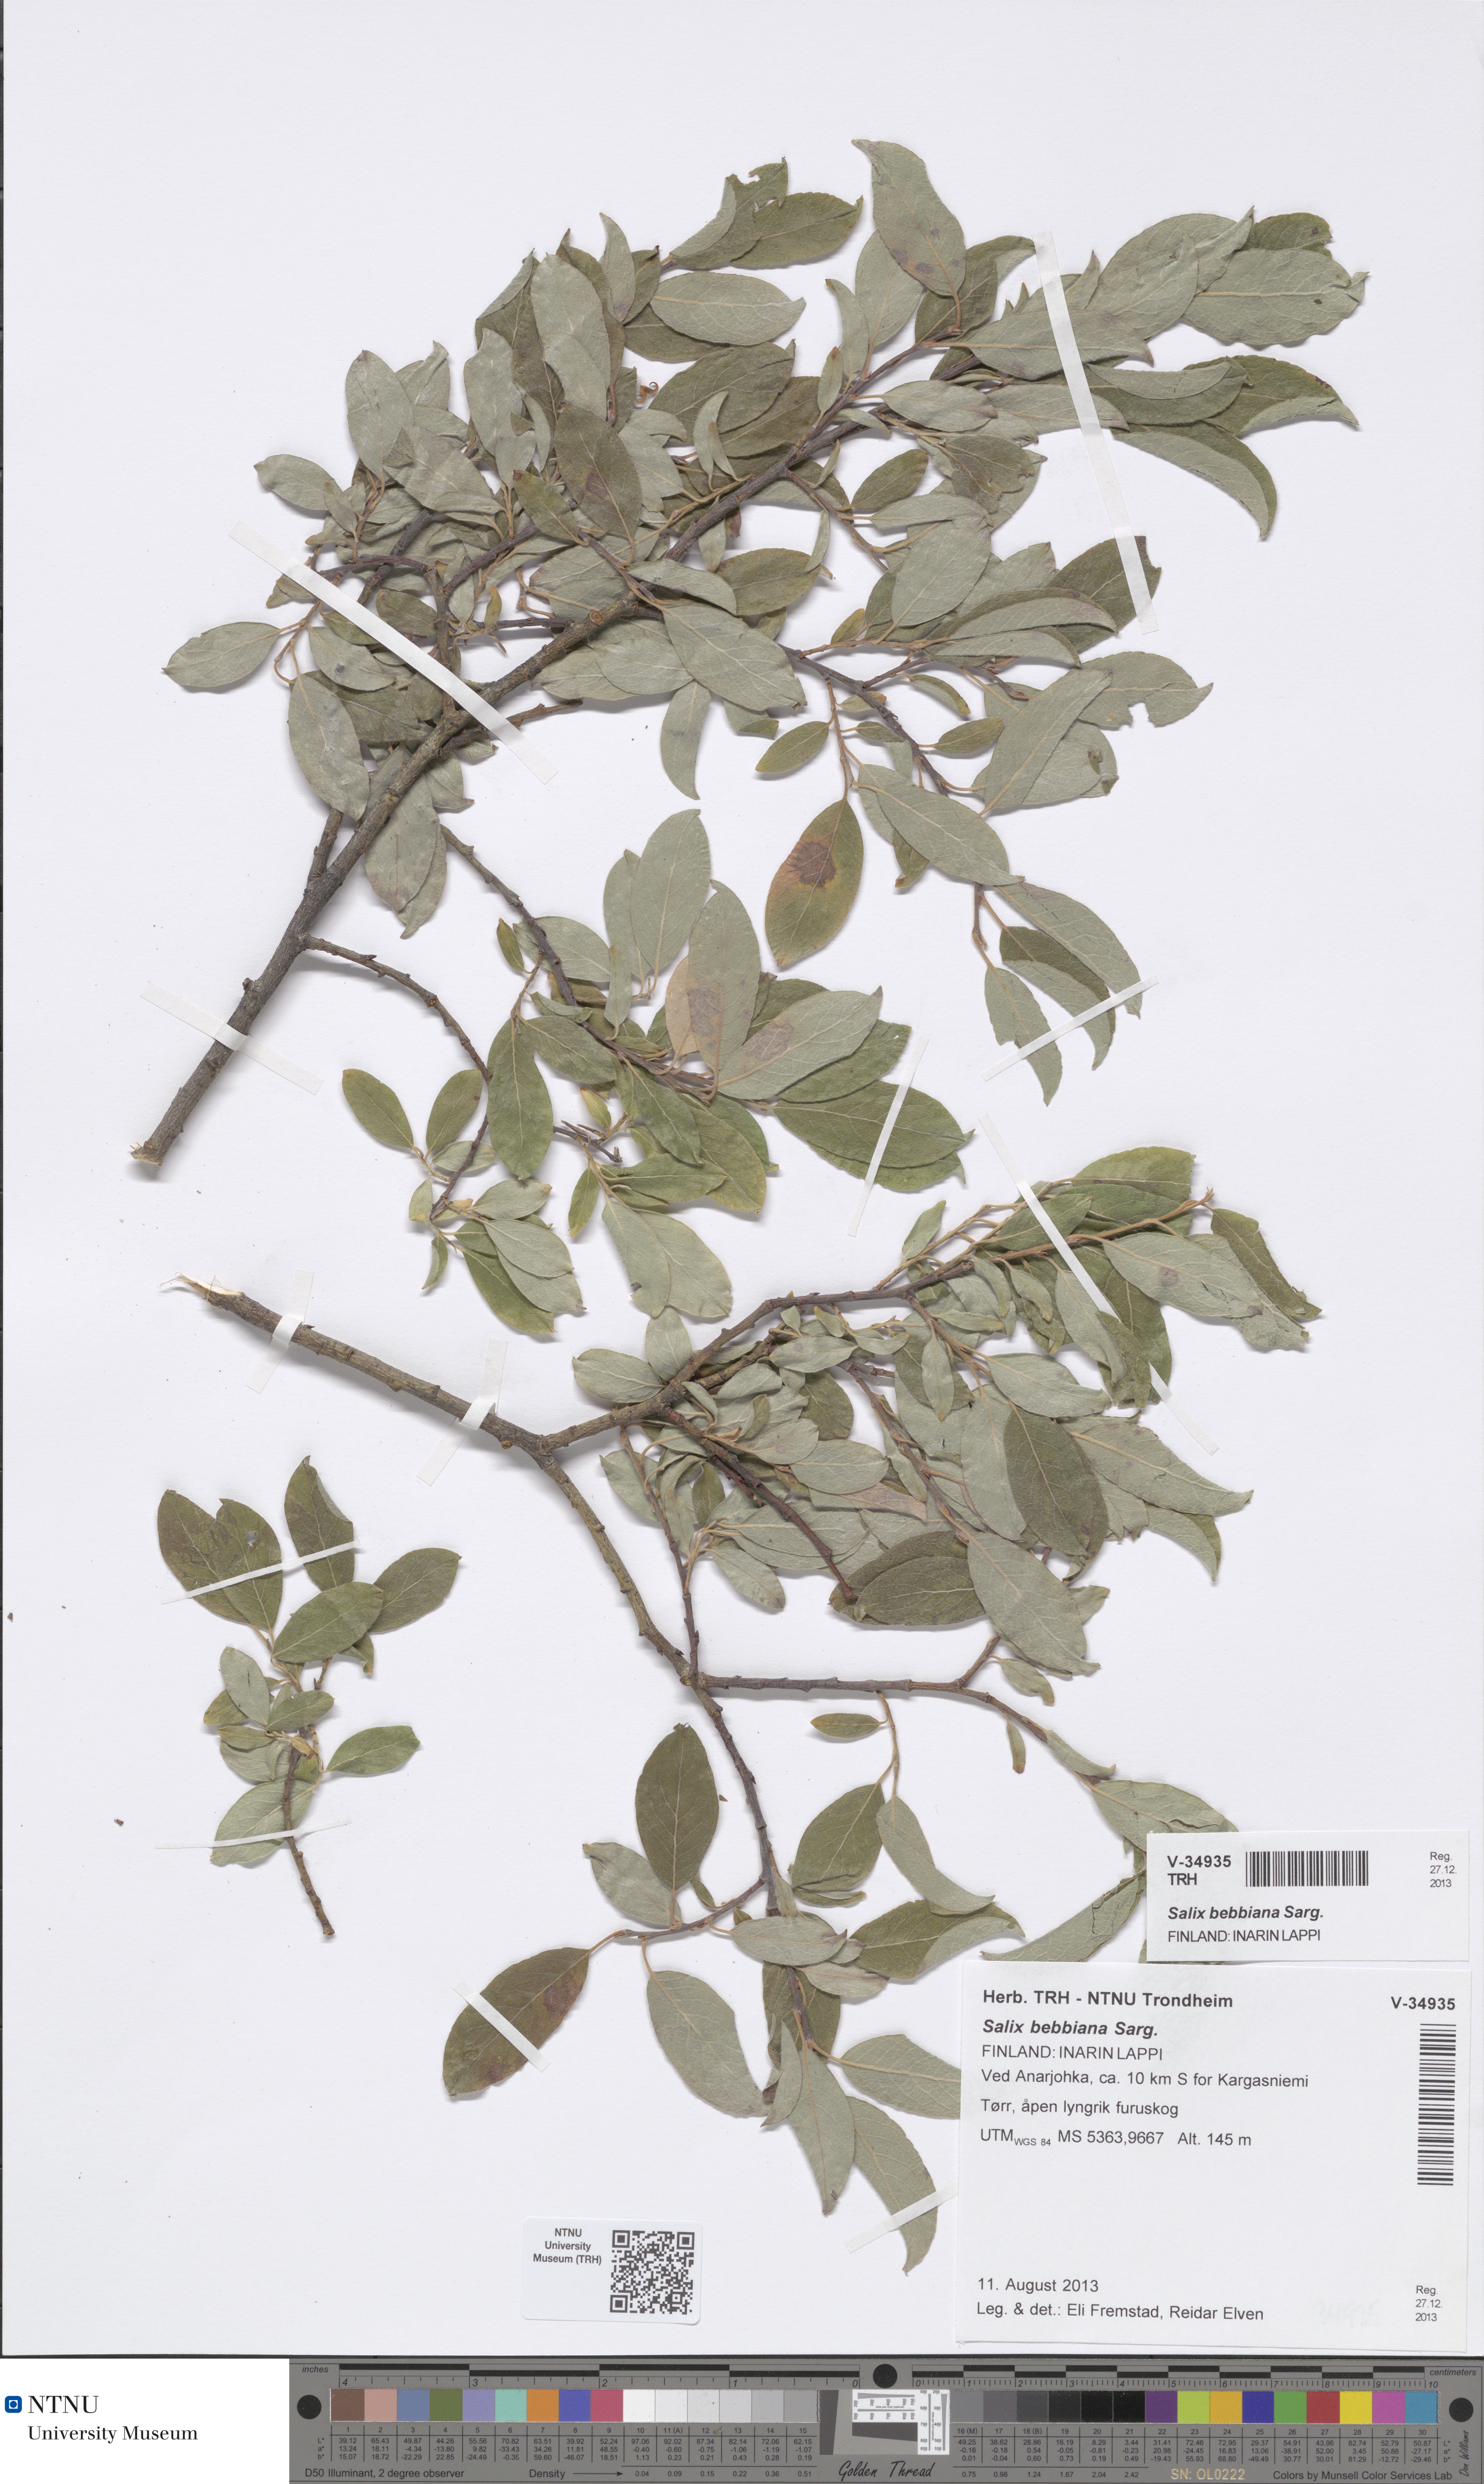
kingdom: Plantae
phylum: Tracheophyta
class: Magnoliopsida
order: Malpighiales
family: Salicaceae
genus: Salix
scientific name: Salix bebbiana
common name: Bebb's willow
